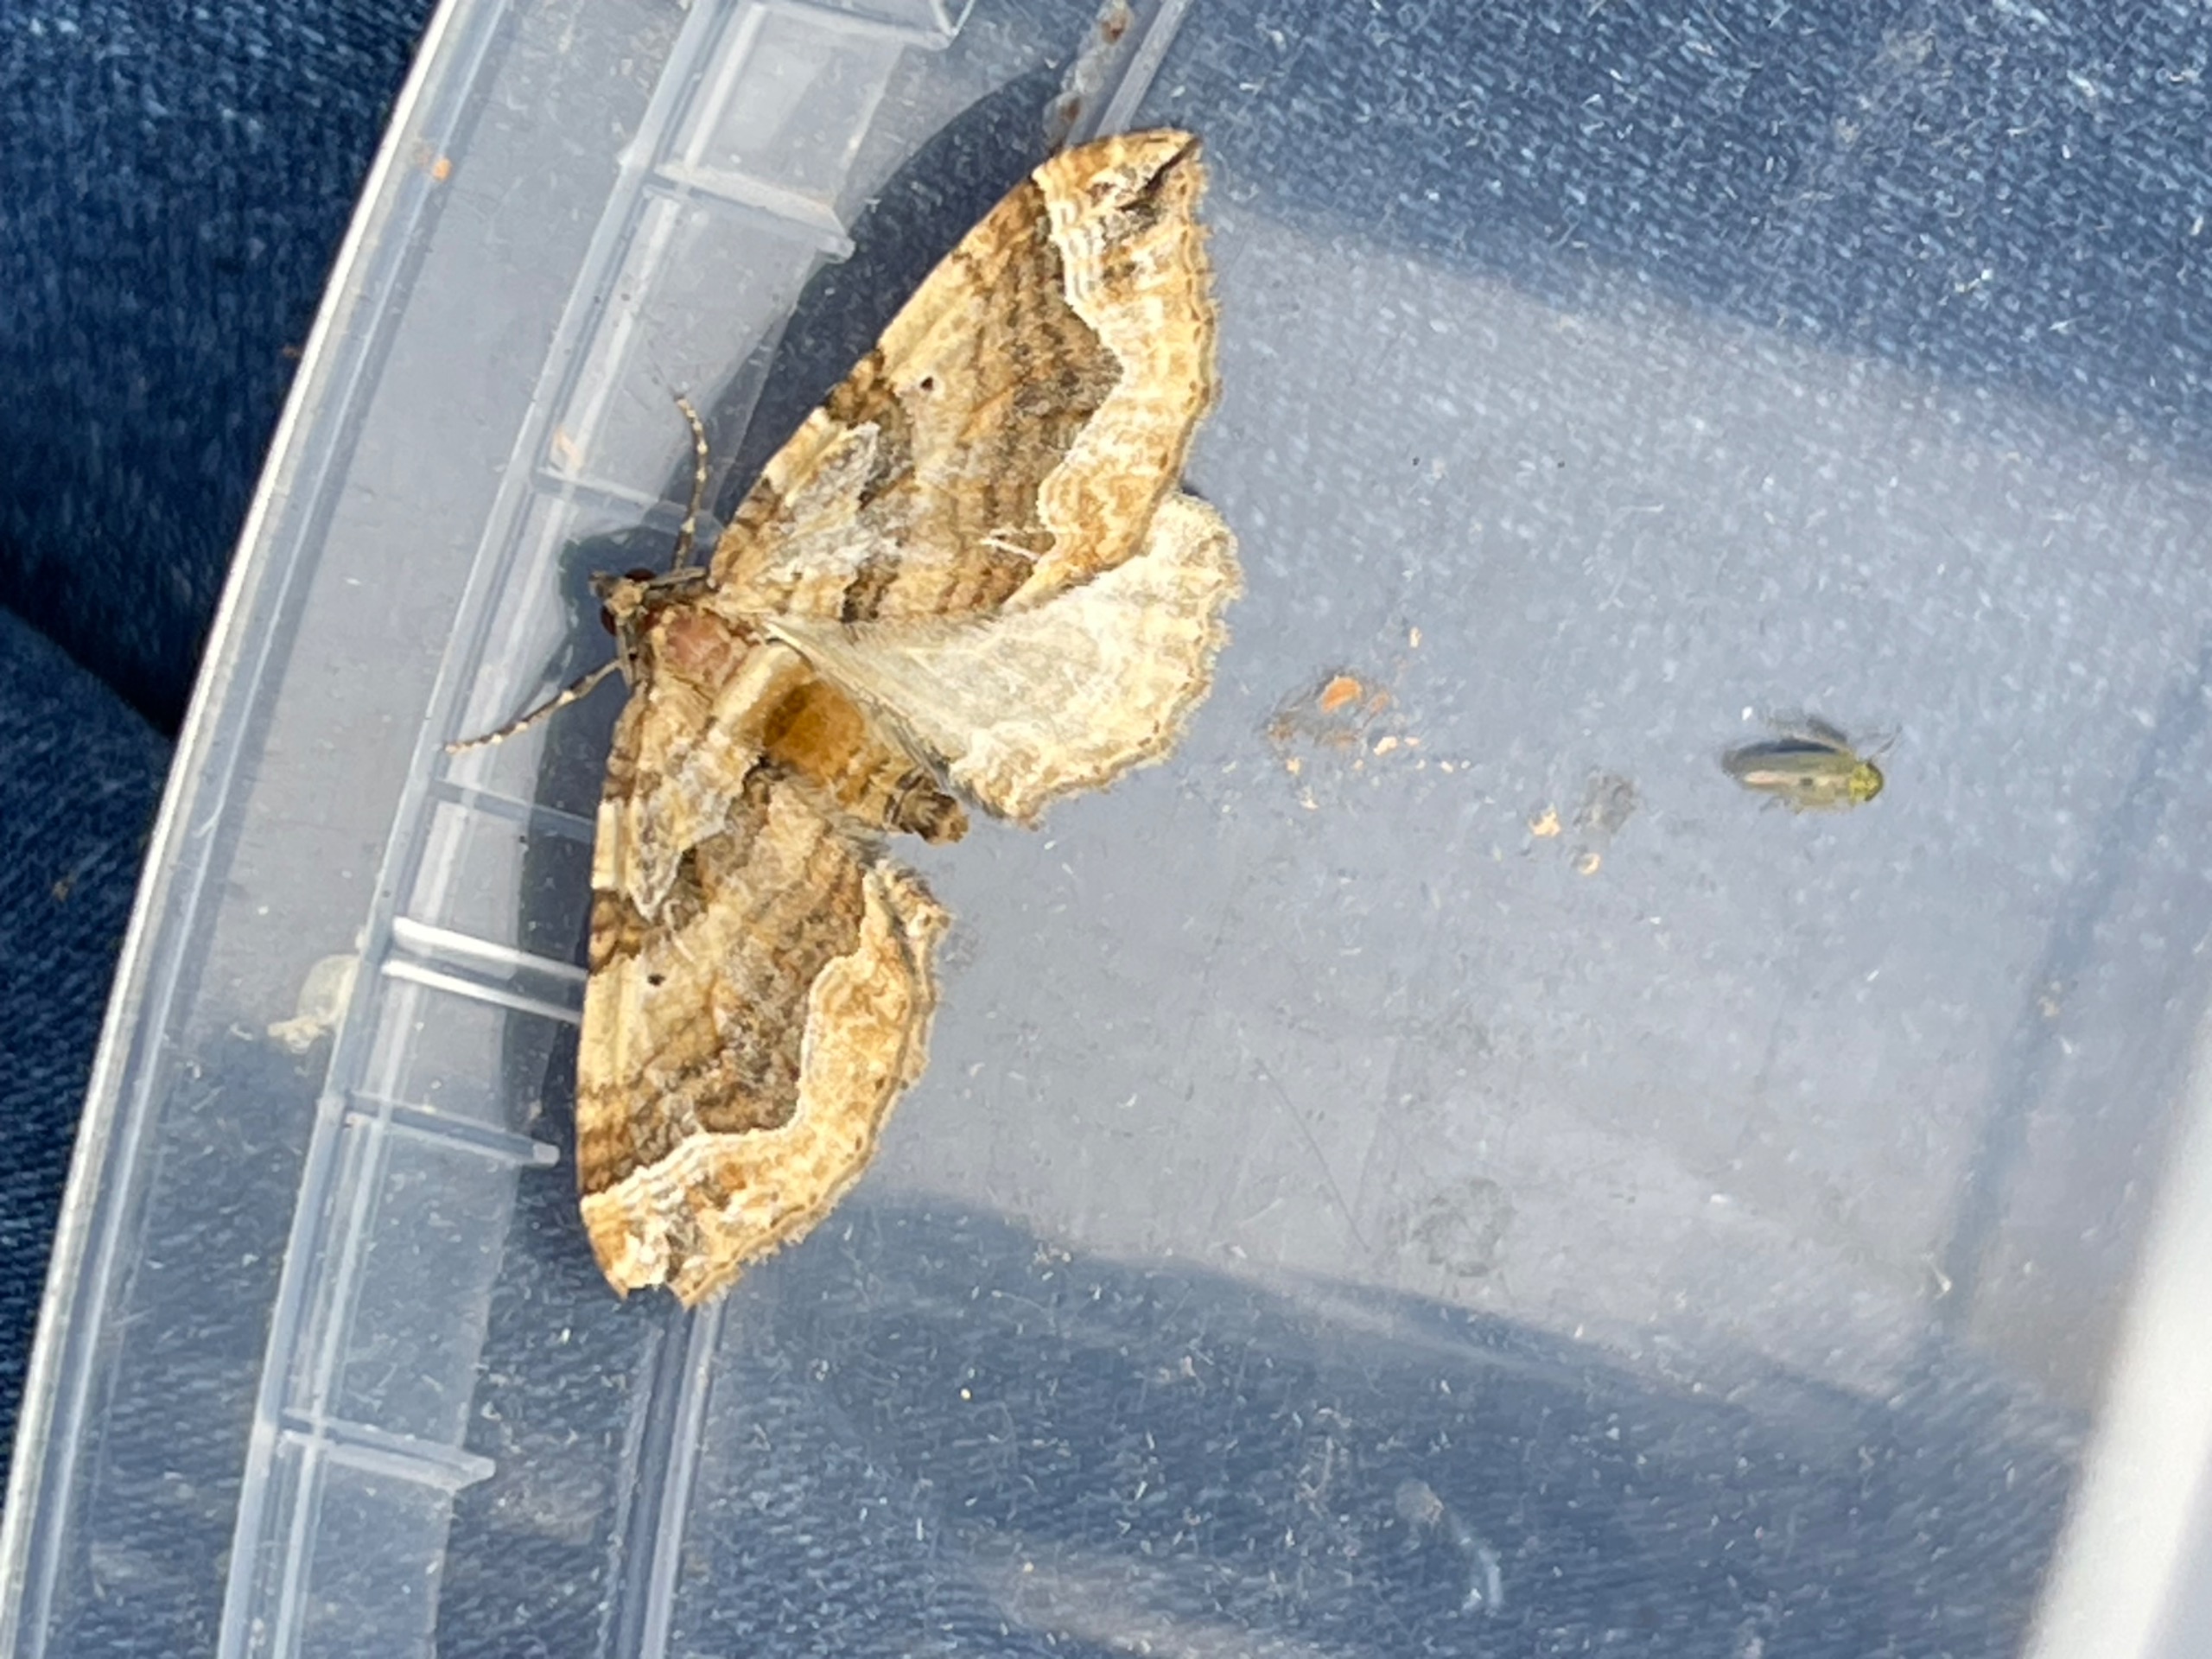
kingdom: Animalia
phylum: Arthropoda
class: Insecta
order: Lepidoptera
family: Geometridae
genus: Pelurga
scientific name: Pelurga comitata
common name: Gåsefod-bladmåler
